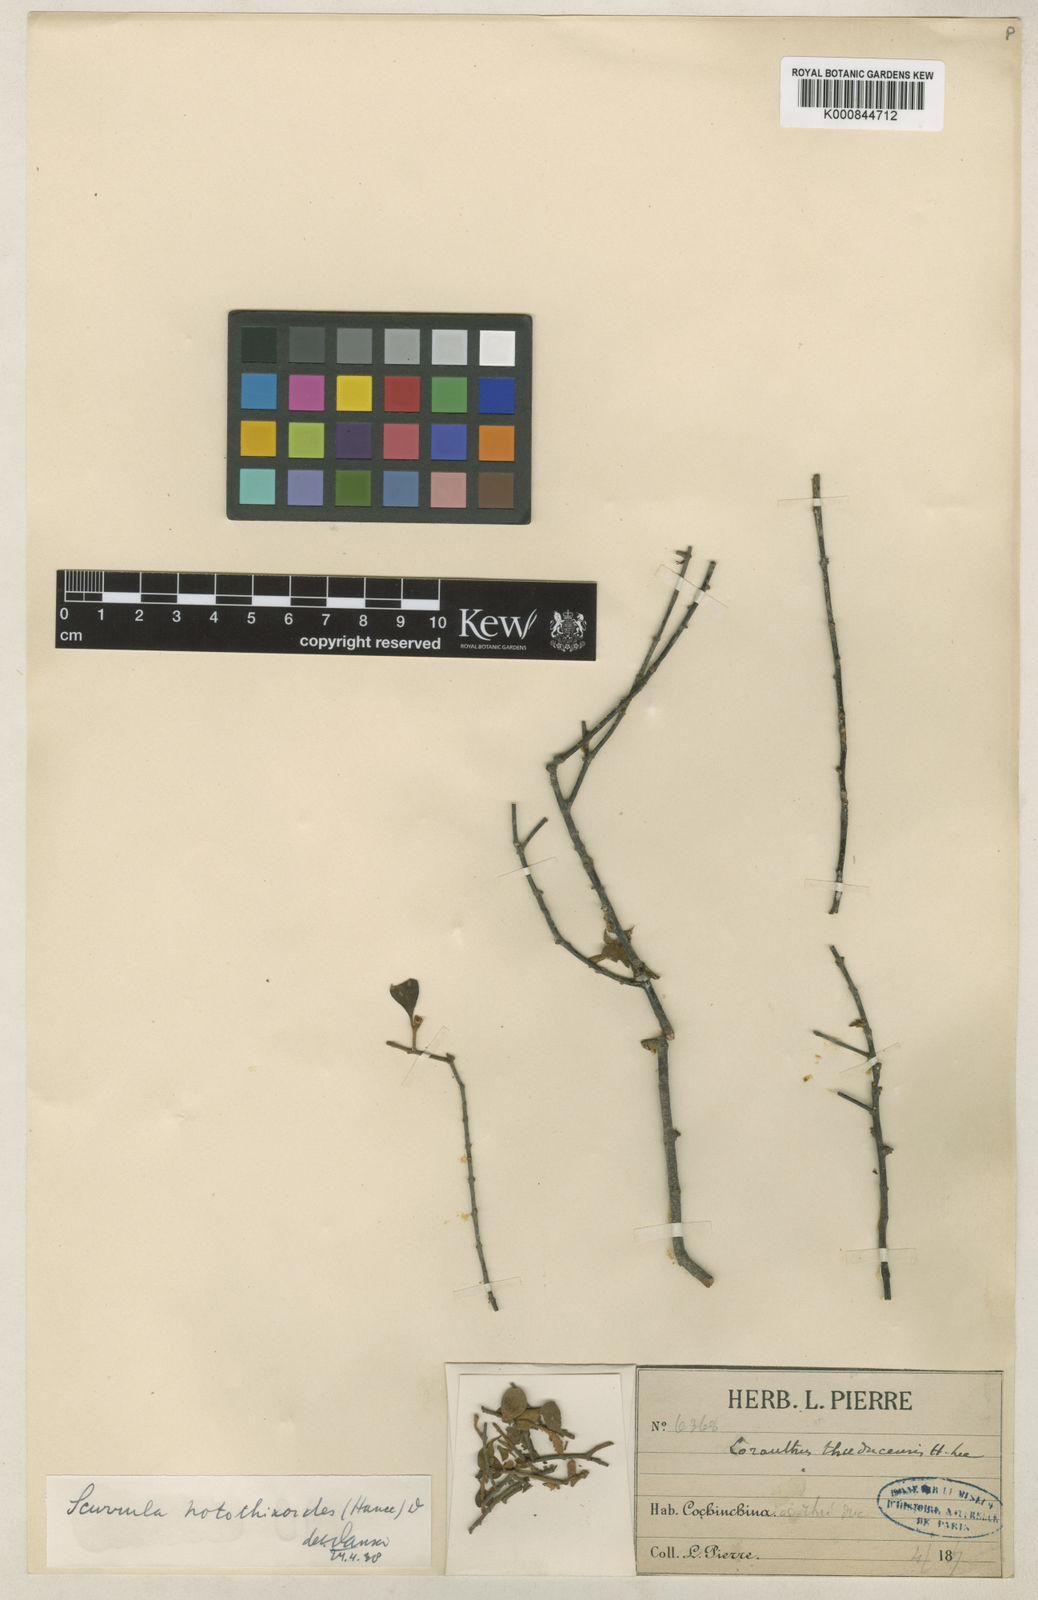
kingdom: Plantae
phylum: Tracheophyta
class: Magnoliopsida
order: Santalales
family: Loranthaceae
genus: Scurrula
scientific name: Scurrula notothixoides
